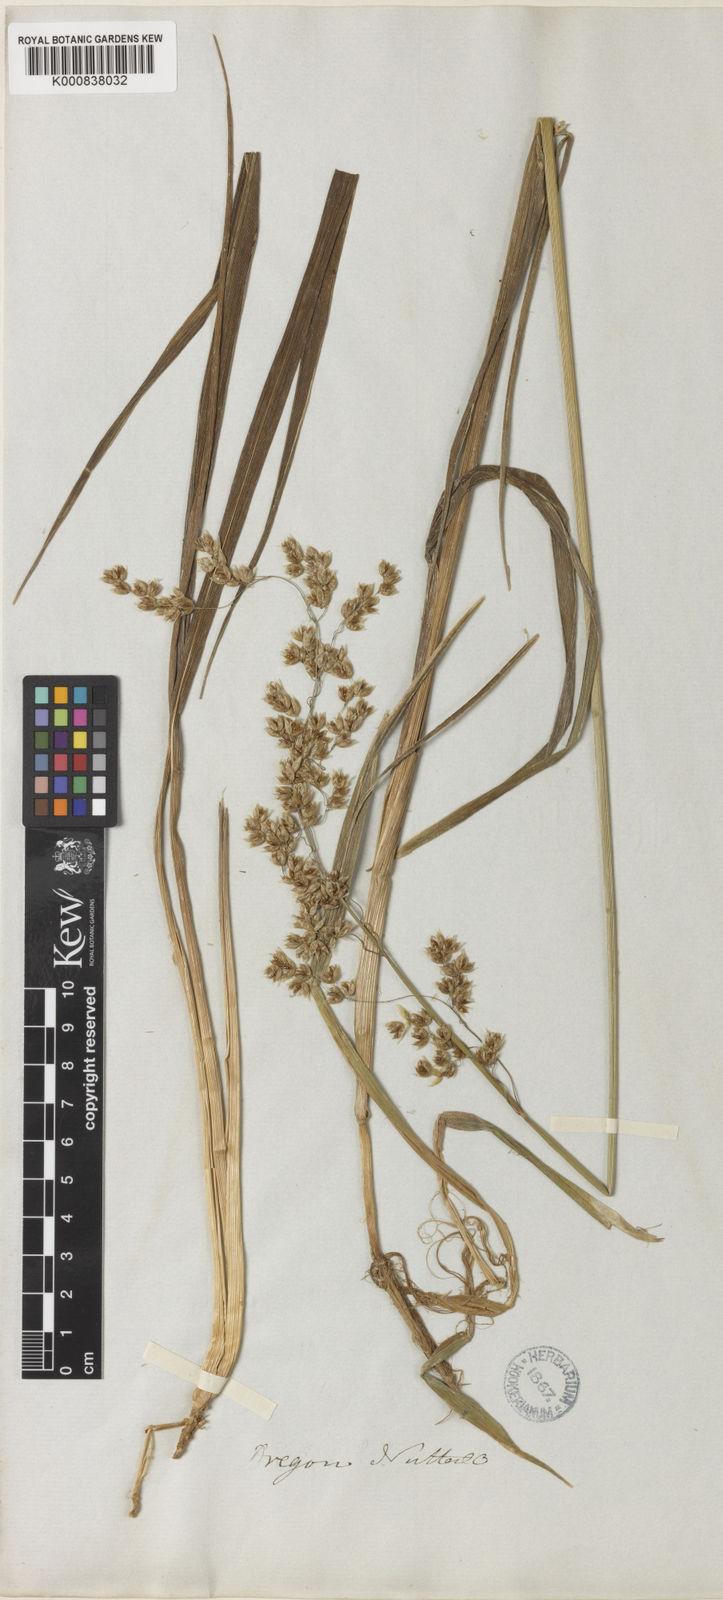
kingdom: Plantae
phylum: Tracheophyta
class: Liliopsida
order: Poales
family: Poaceae
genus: Anthoxanthum
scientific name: Anthoxanthum occidentale
